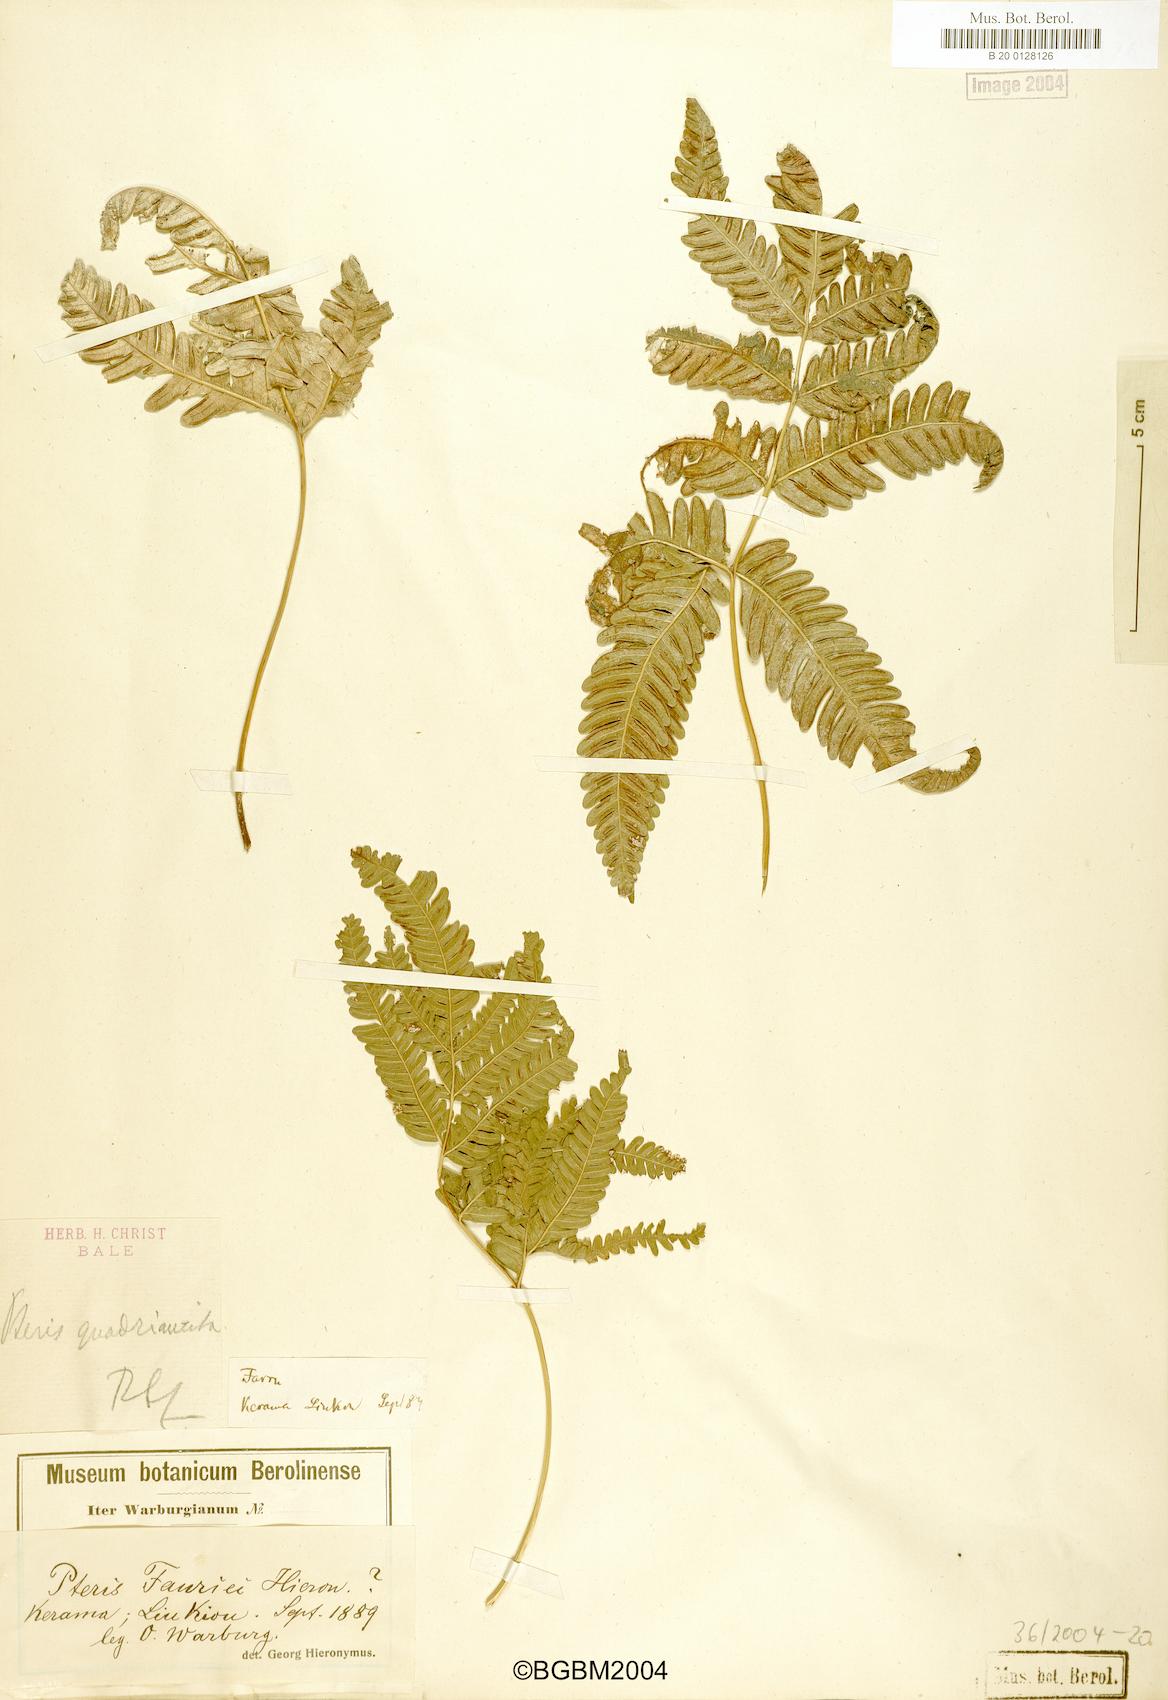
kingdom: Plantae
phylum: Tracheophyta
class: Polypodiopsida
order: Polypodiales
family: Pteridaceae
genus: Pteris
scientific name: Pteris fauriei
